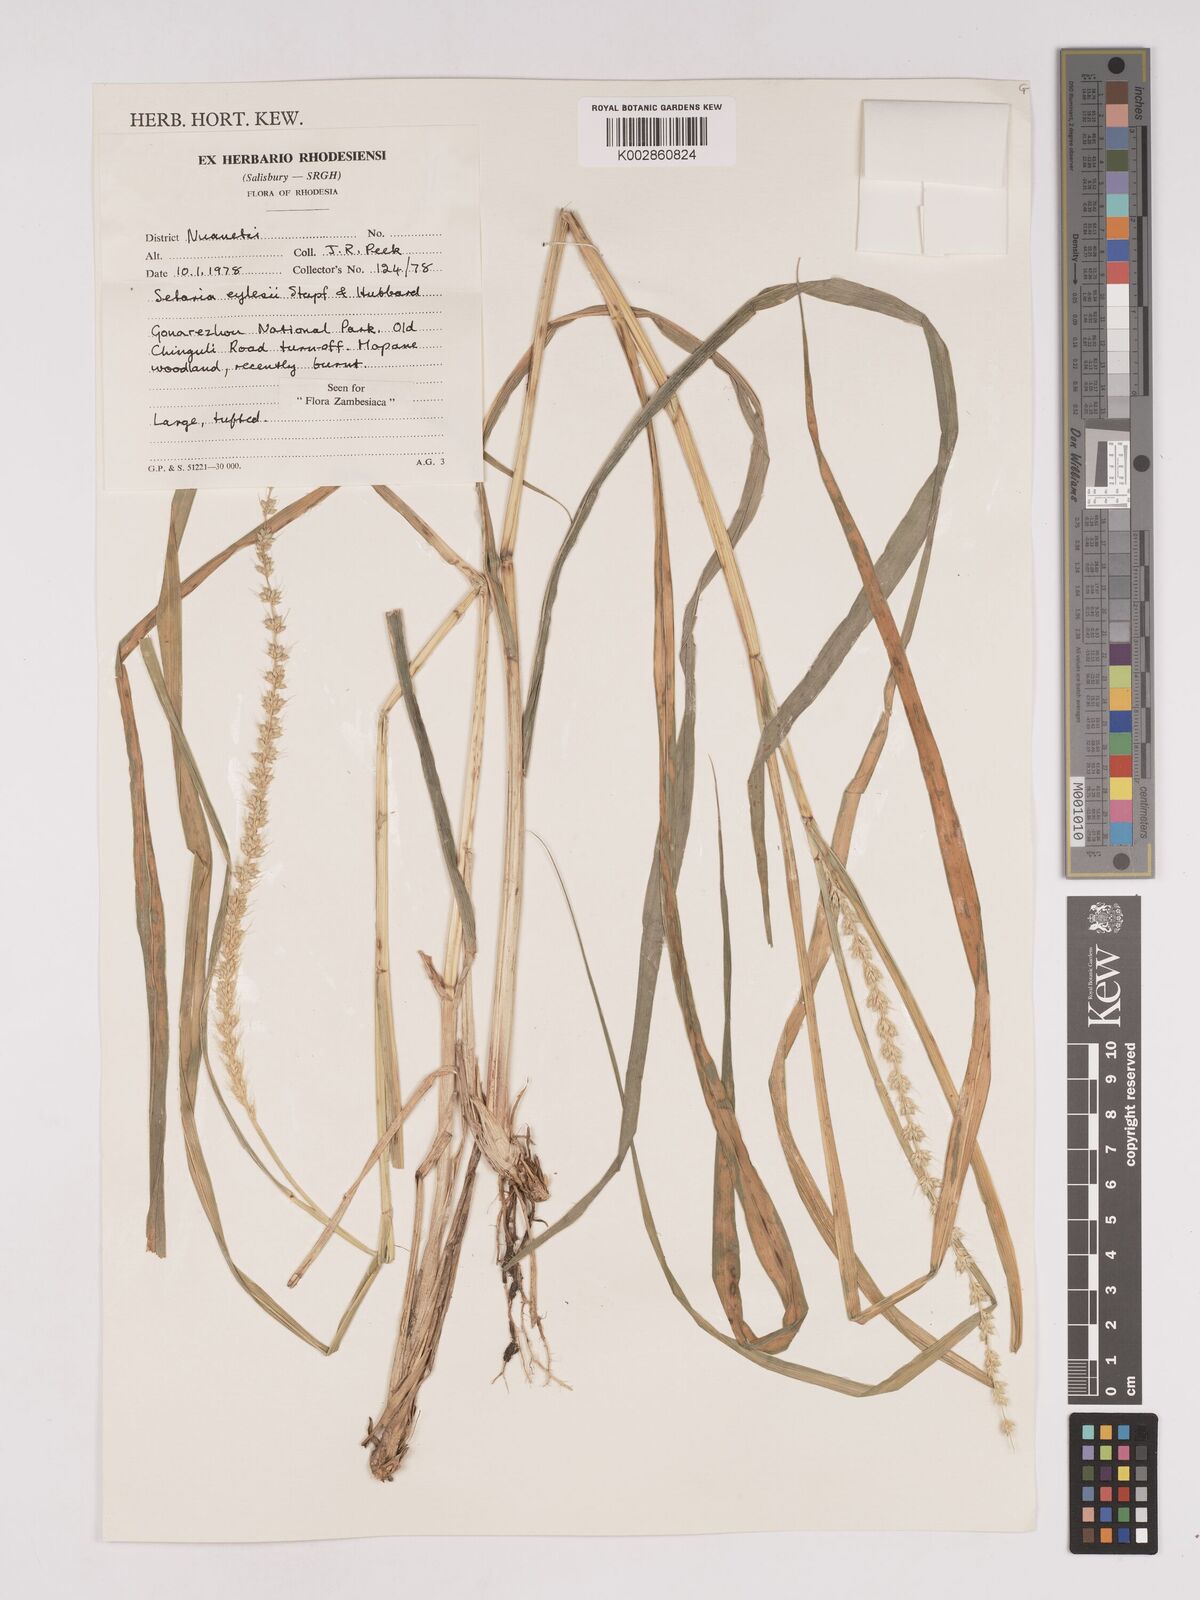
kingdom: Plantae
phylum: Tracheophyta
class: Liliopsida
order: Poales
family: Poaceae
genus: Setaria
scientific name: Setaria incrassata
